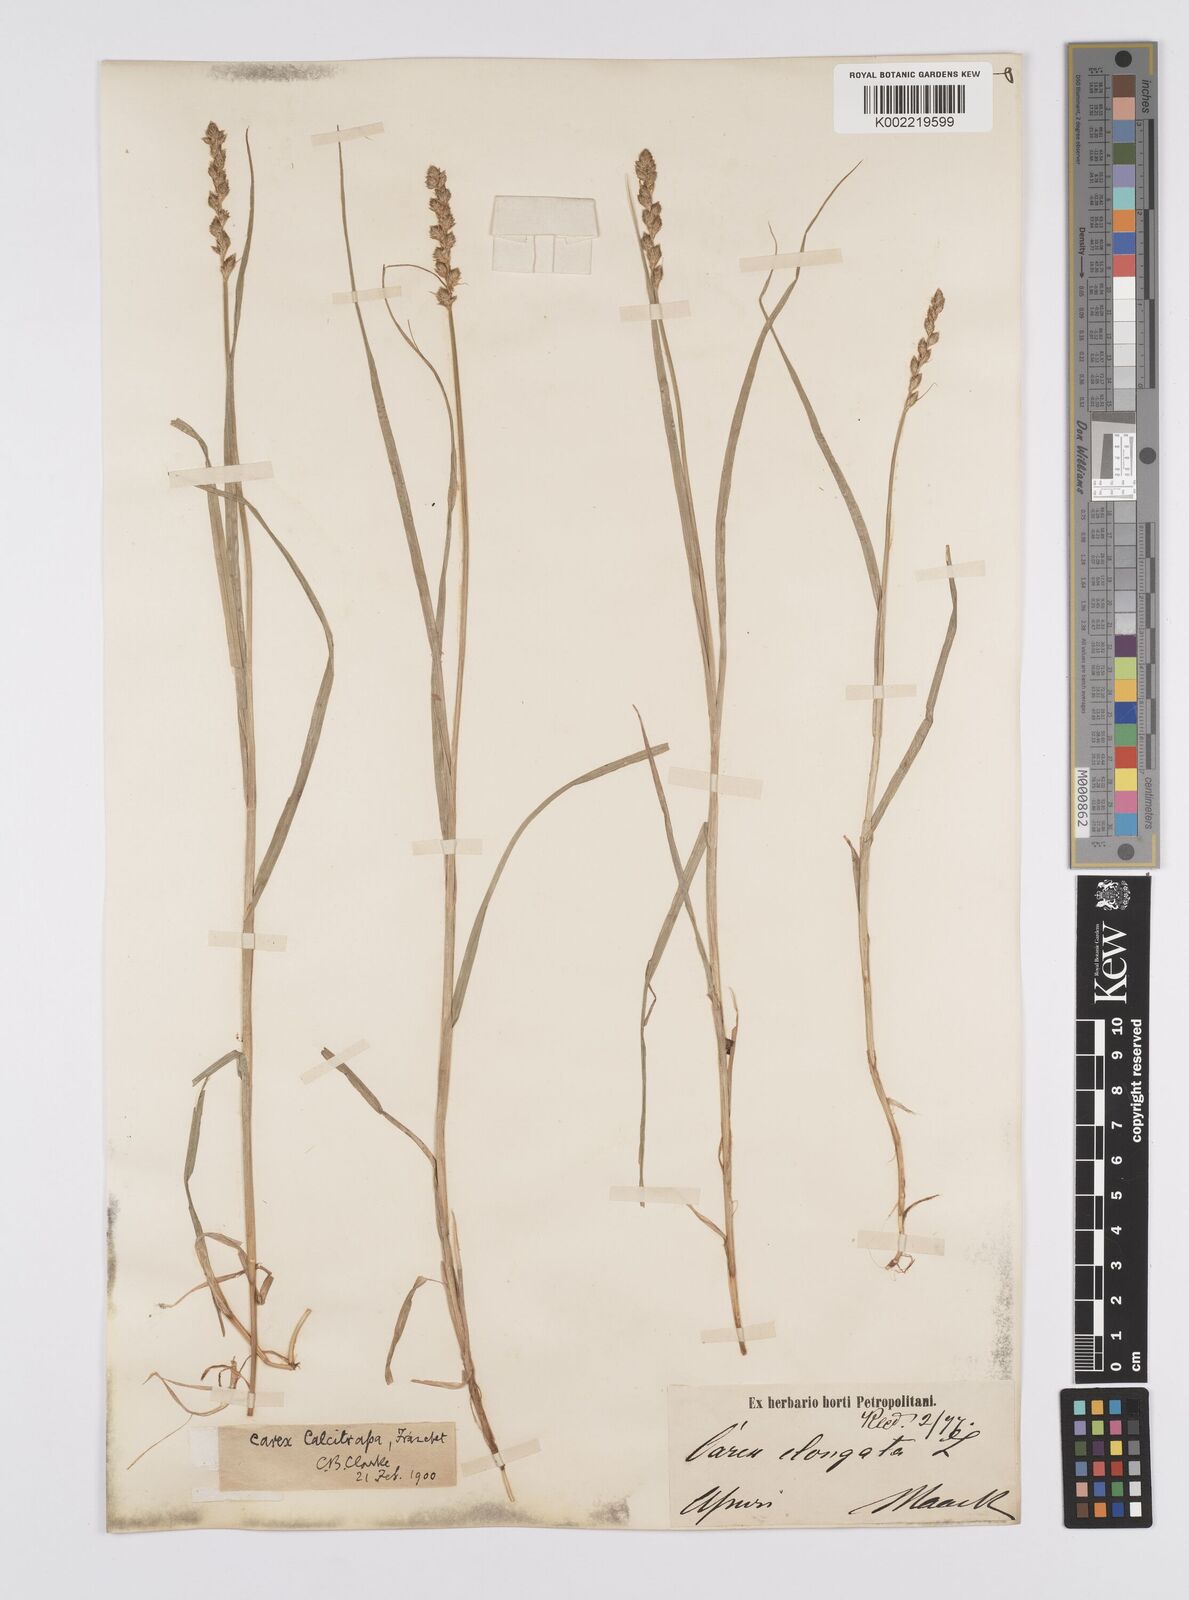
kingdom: Plantae
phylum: Tracheophyta
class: Liliopsida
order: Poales
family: Cyperaceae
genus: Carex
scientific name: Carex maackii
